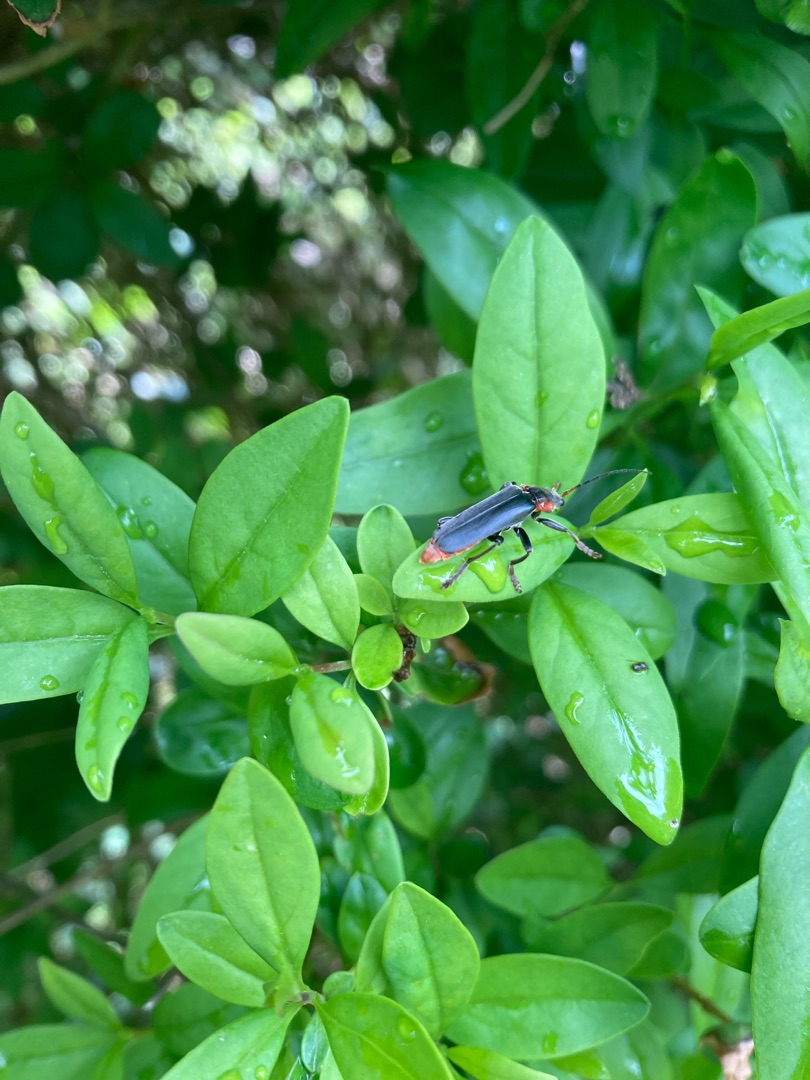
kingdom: Animalia
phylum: Arthropoda
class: Insecta
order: Coleoptera
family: Cantharidae
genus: Cantharis
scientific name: Cantharis fusca
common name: Stor blødvinge
